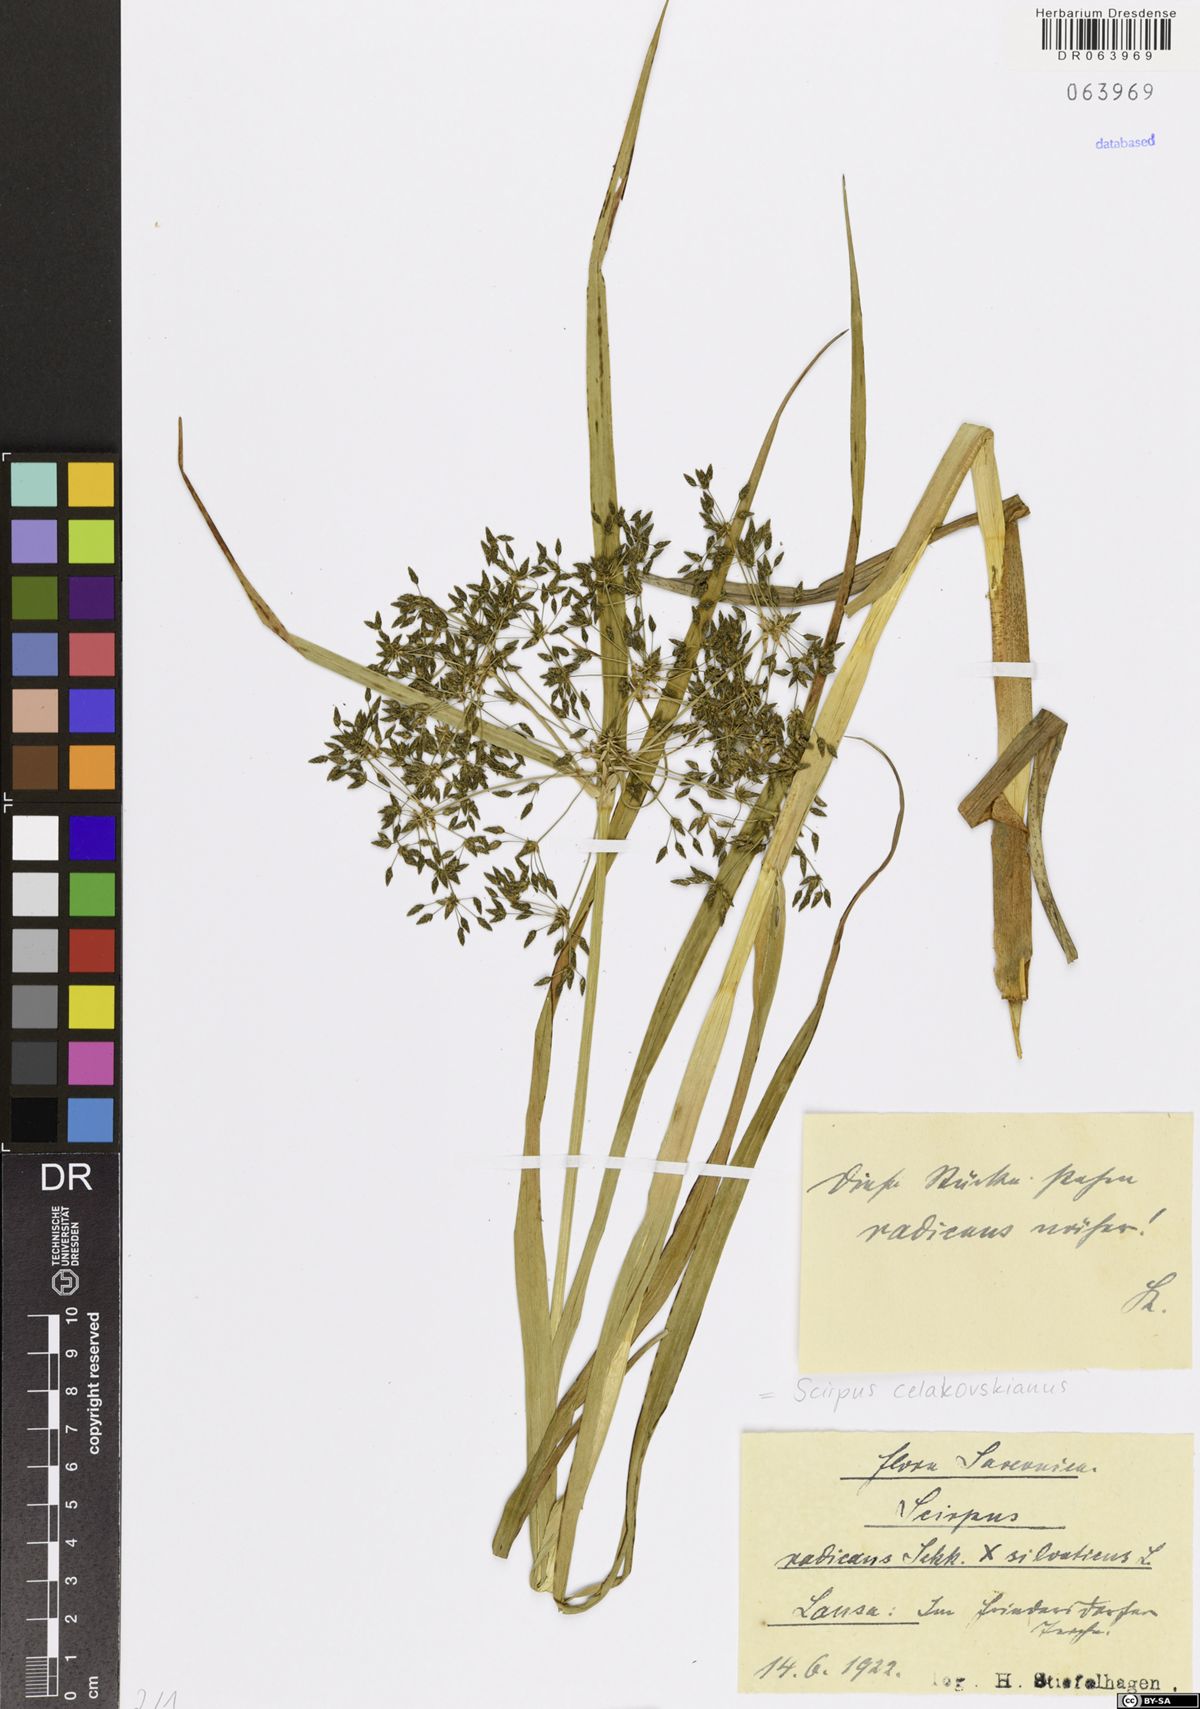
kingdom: Plantae
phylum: Tracheophyta
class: Liliopsida
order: Poales
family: Cyperaceae
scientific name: Cyperaceae
